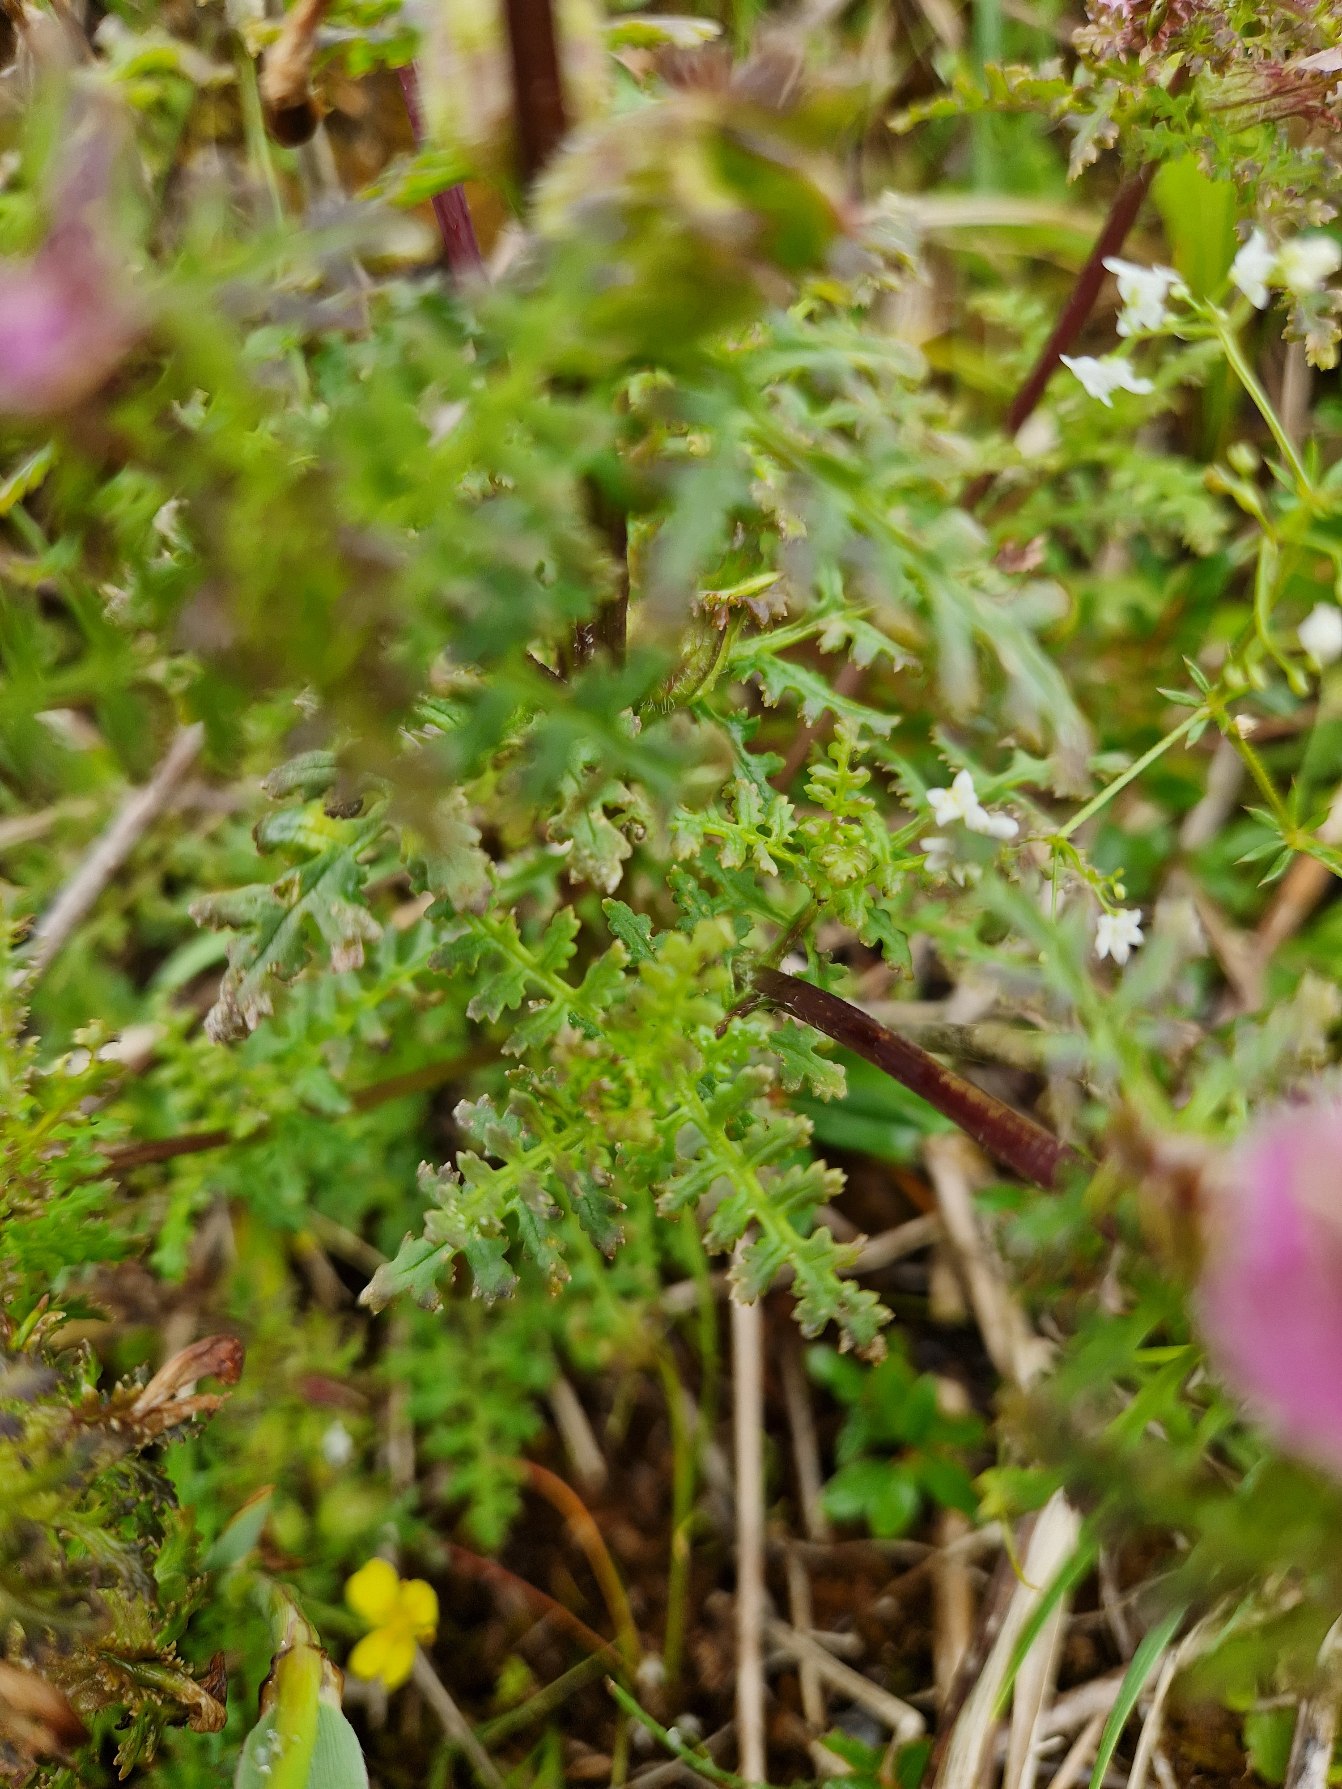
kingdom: Plantae
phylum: Tracheophyta
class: Magnoliopsida
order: Lamiales
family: Orobanchaceae
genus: Pedicularis
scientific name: Pedicularis palustris
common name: Eng-troldurt
